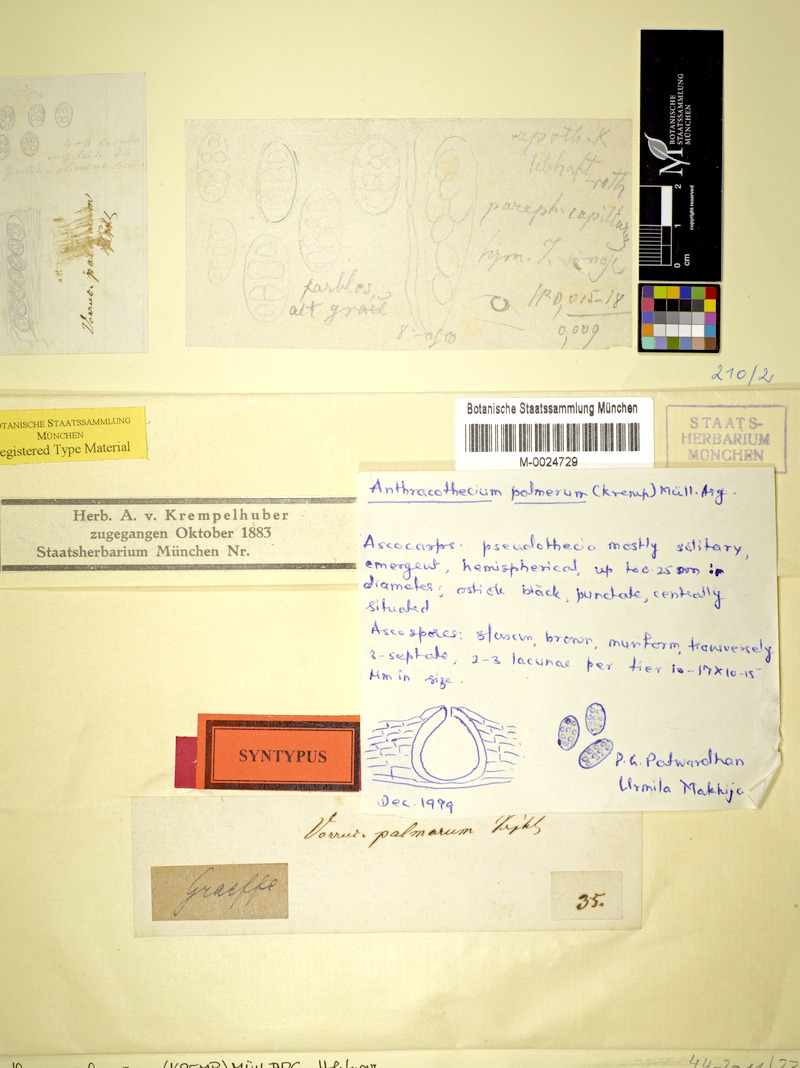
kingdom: Fungi
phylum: Ascomycota
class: Eurotiomycetes
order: Pyrenulales
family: Pyrenulaceae
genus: Anthracothecium
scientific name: Anthracothecium
